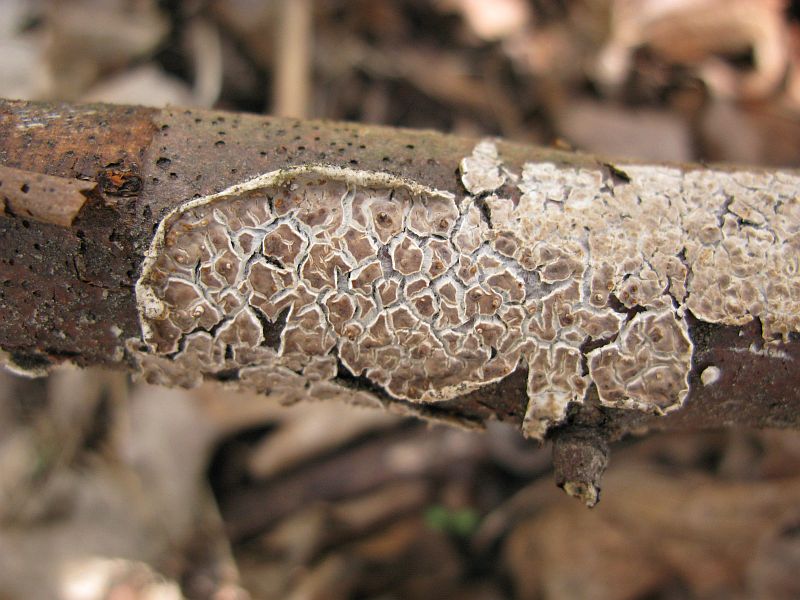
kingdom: Fungi
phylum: Basidiomycota
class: Agaricomycetes
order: Agaricales
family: Physalacriaceae
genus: Cylindrobasidium
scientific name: Cylindrobasidium evolvens
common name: sprækkehinde
